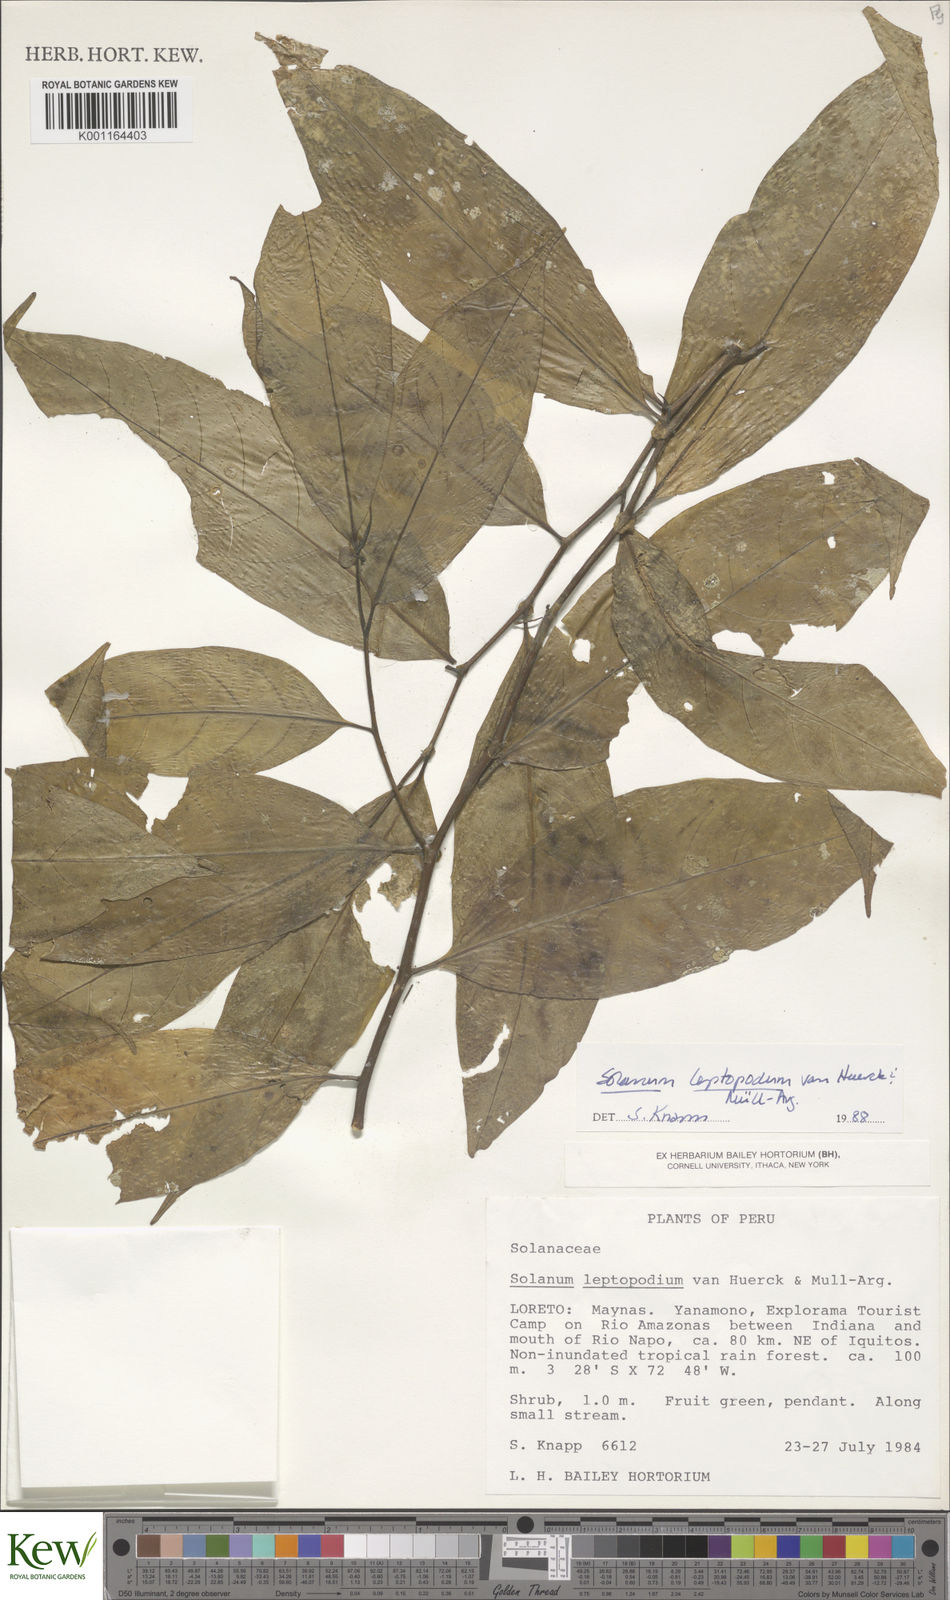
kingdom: Plantae
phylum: Tracheophyta
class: Magnoliopsida
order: Solanales
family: Solanaceae
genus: Solanum
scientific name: Solanum leptopodum
